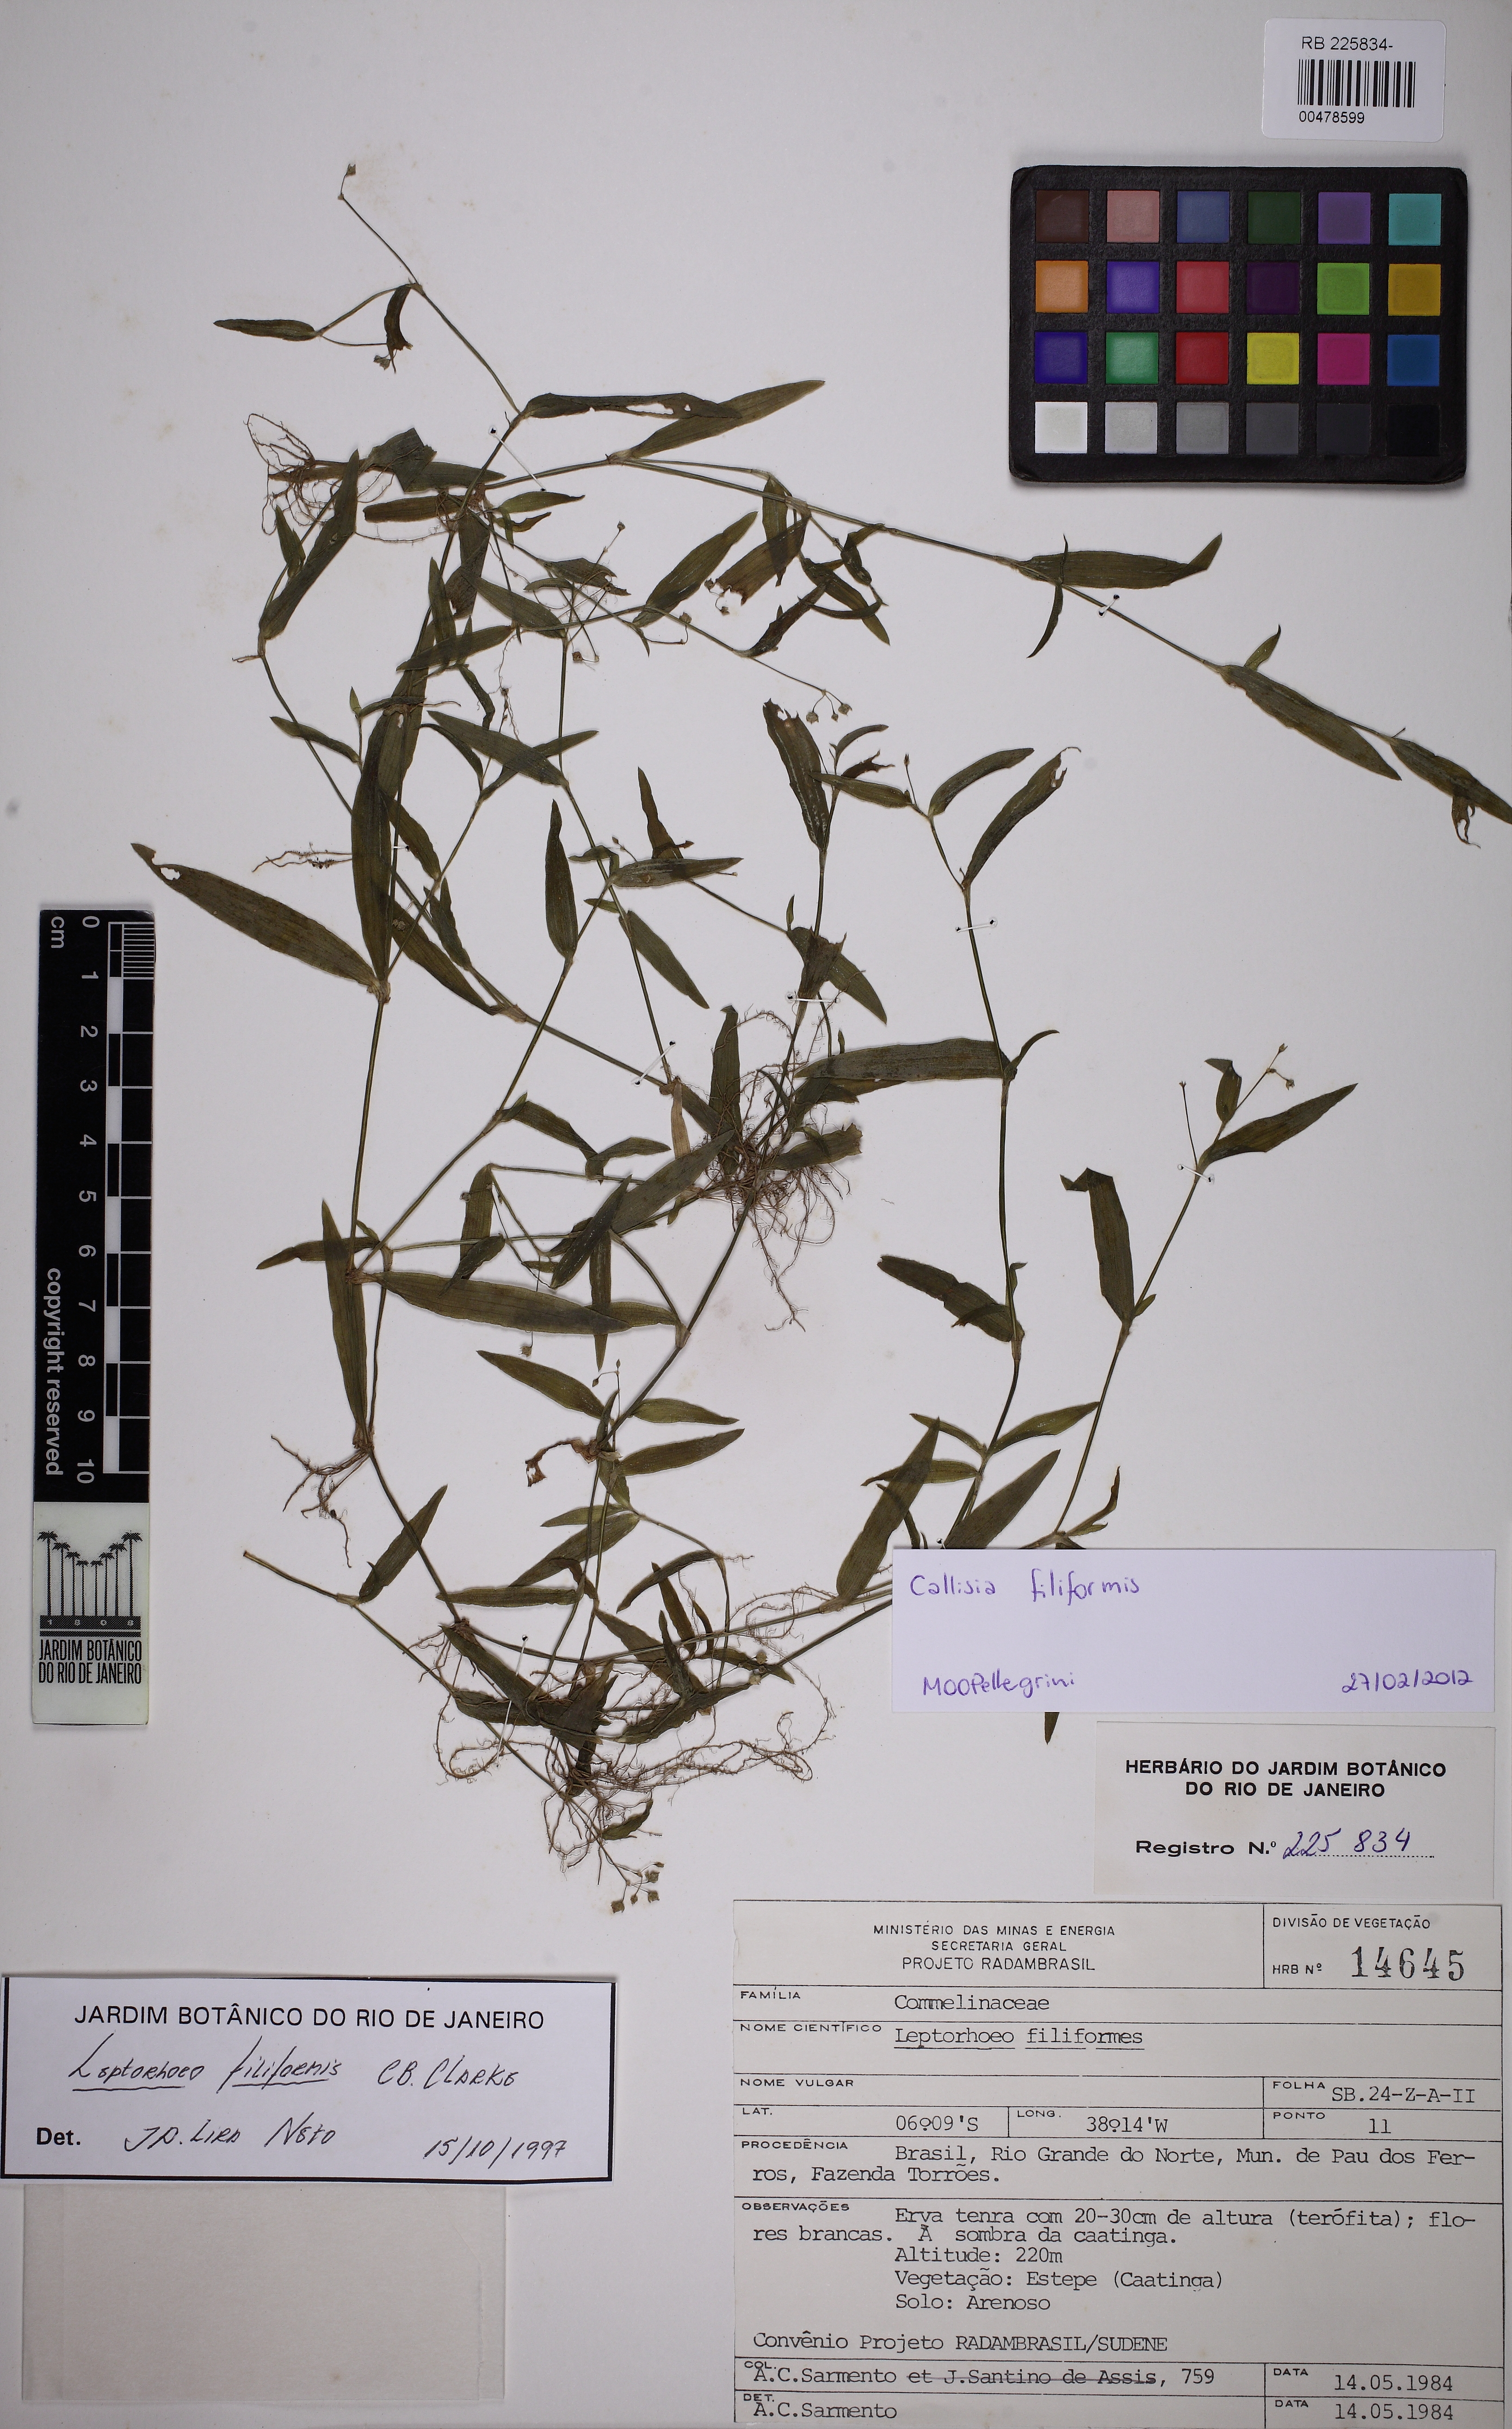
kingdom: Plantae
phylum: Tracheophyta
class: Liliopsida
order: Commelinales
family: Commelinaceae
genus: Callisia
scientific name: Callisia filiformis
